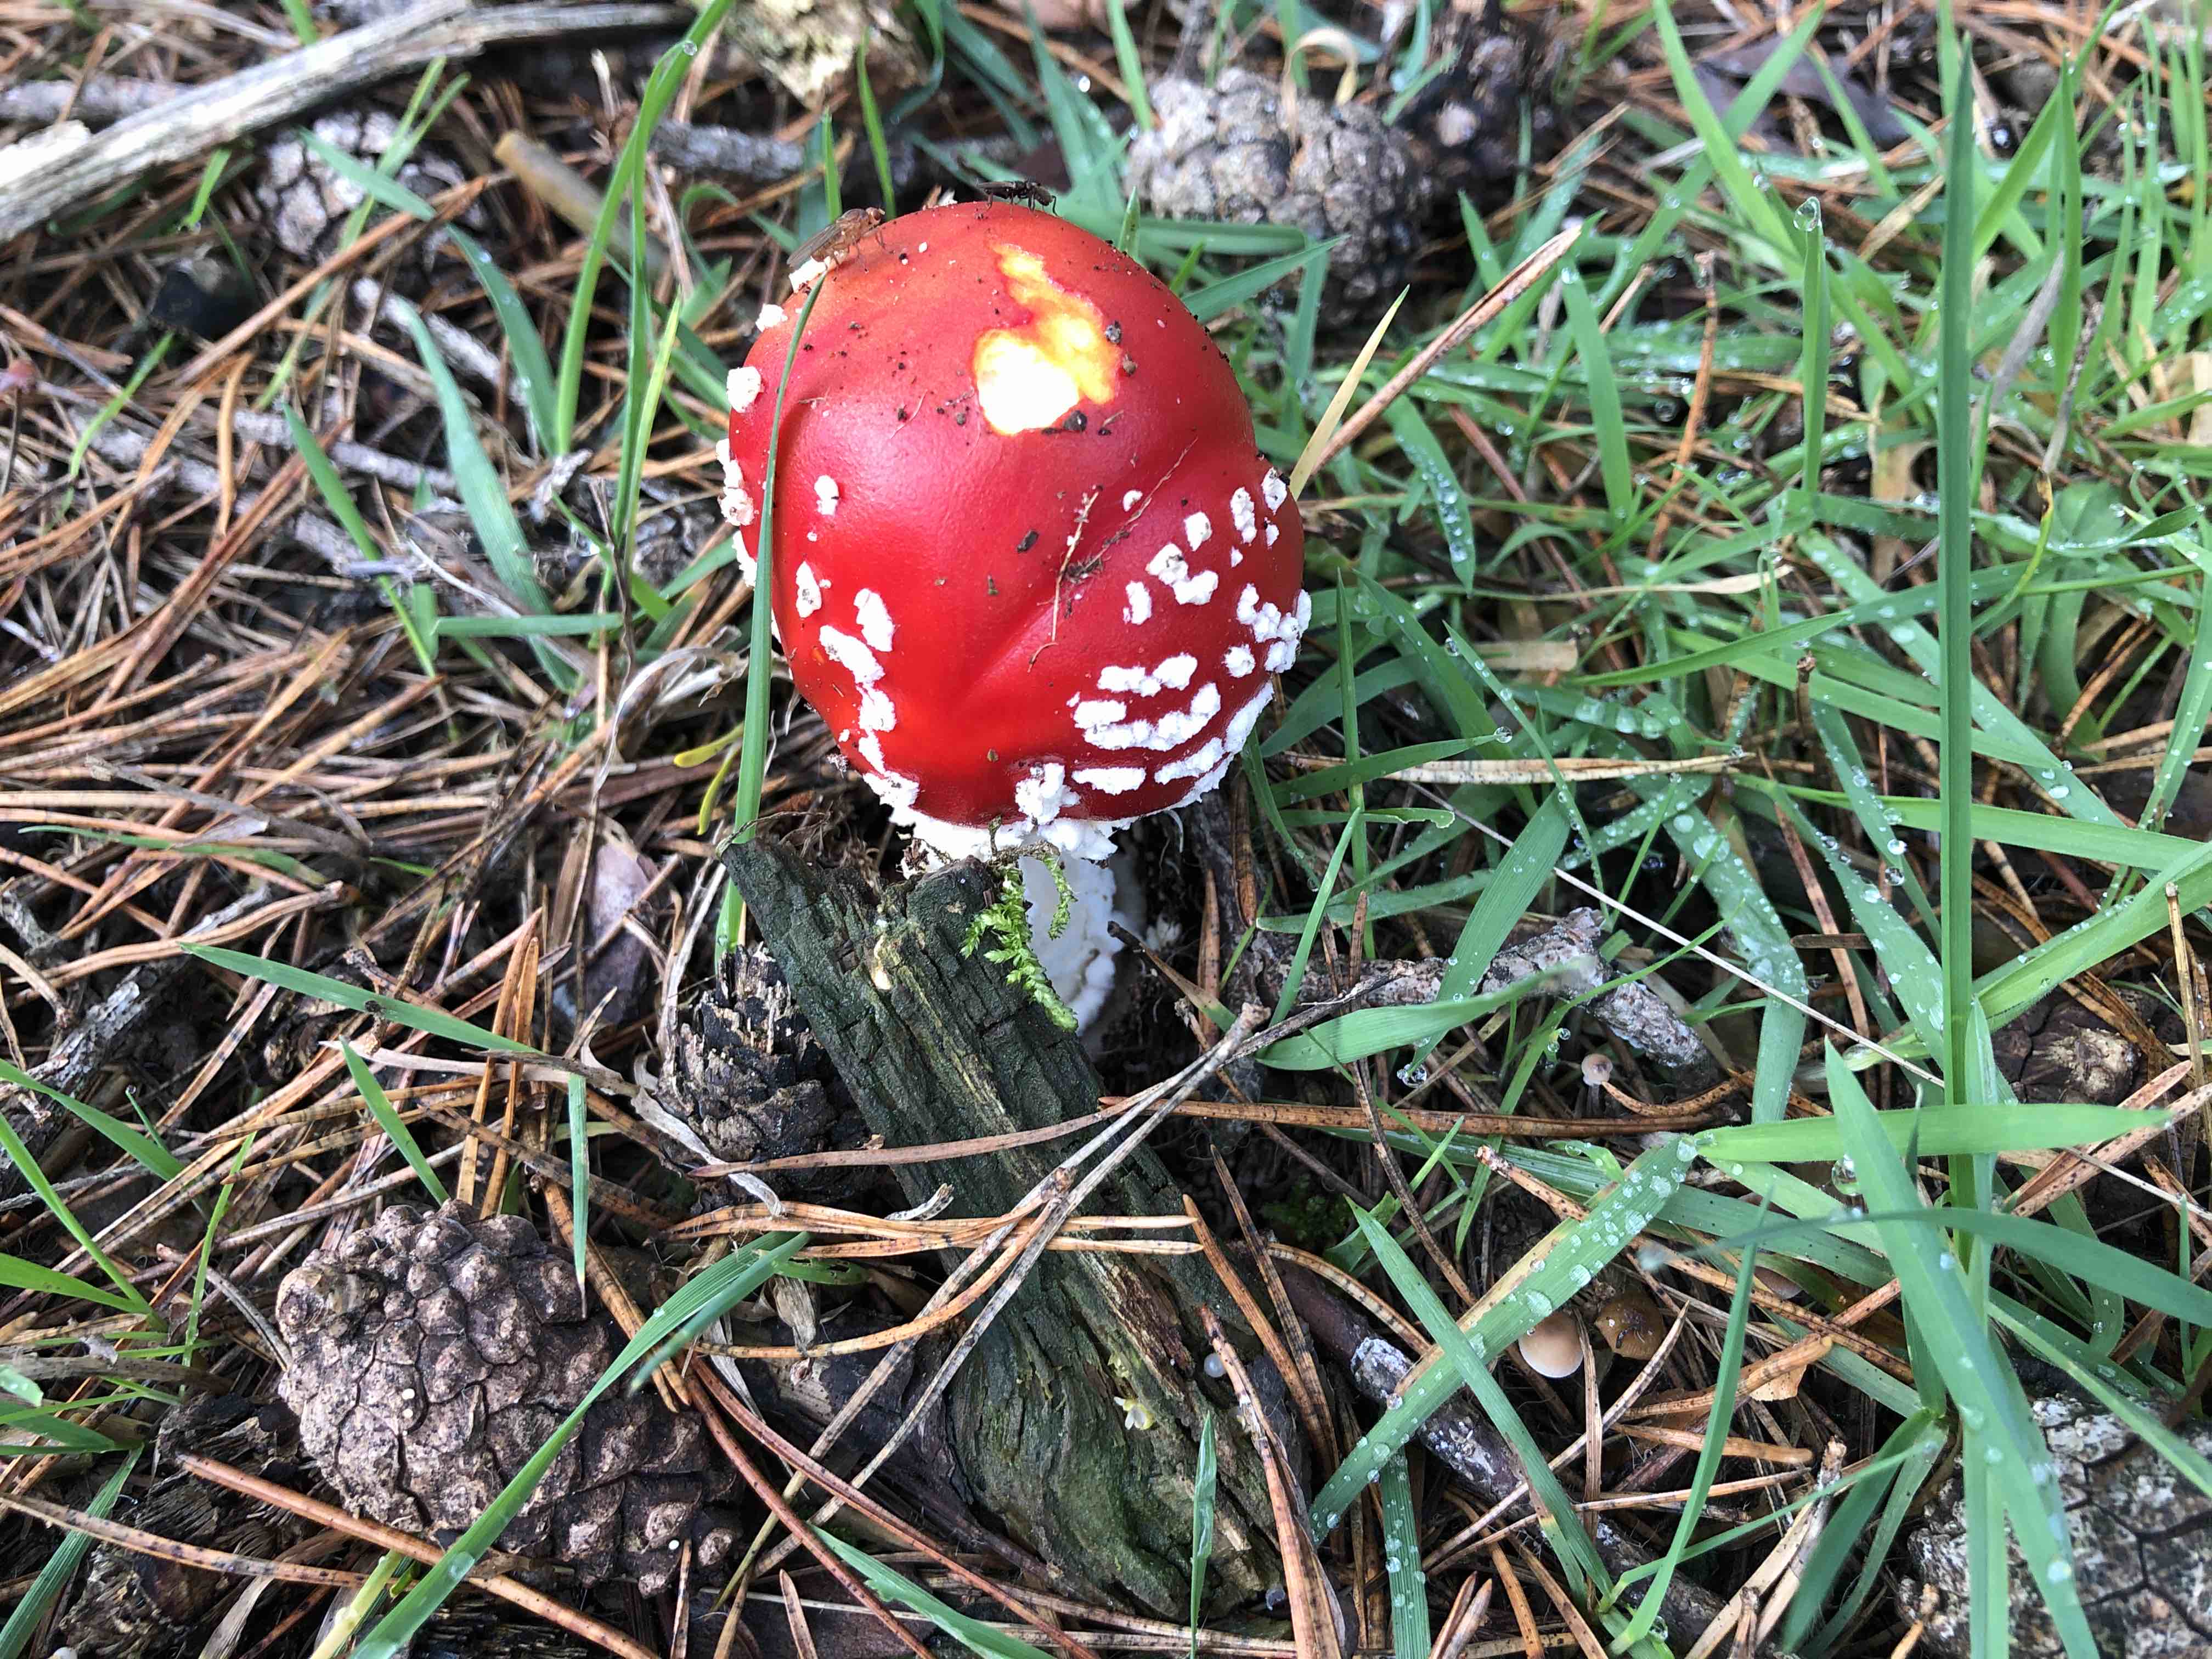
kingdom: Fungi
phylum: Basidiomycota
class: Agaricomycetes
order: Agaricales
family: Amanitaceae
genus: Amanita
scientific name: Amanita muscaria
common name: rød fluesvamp
